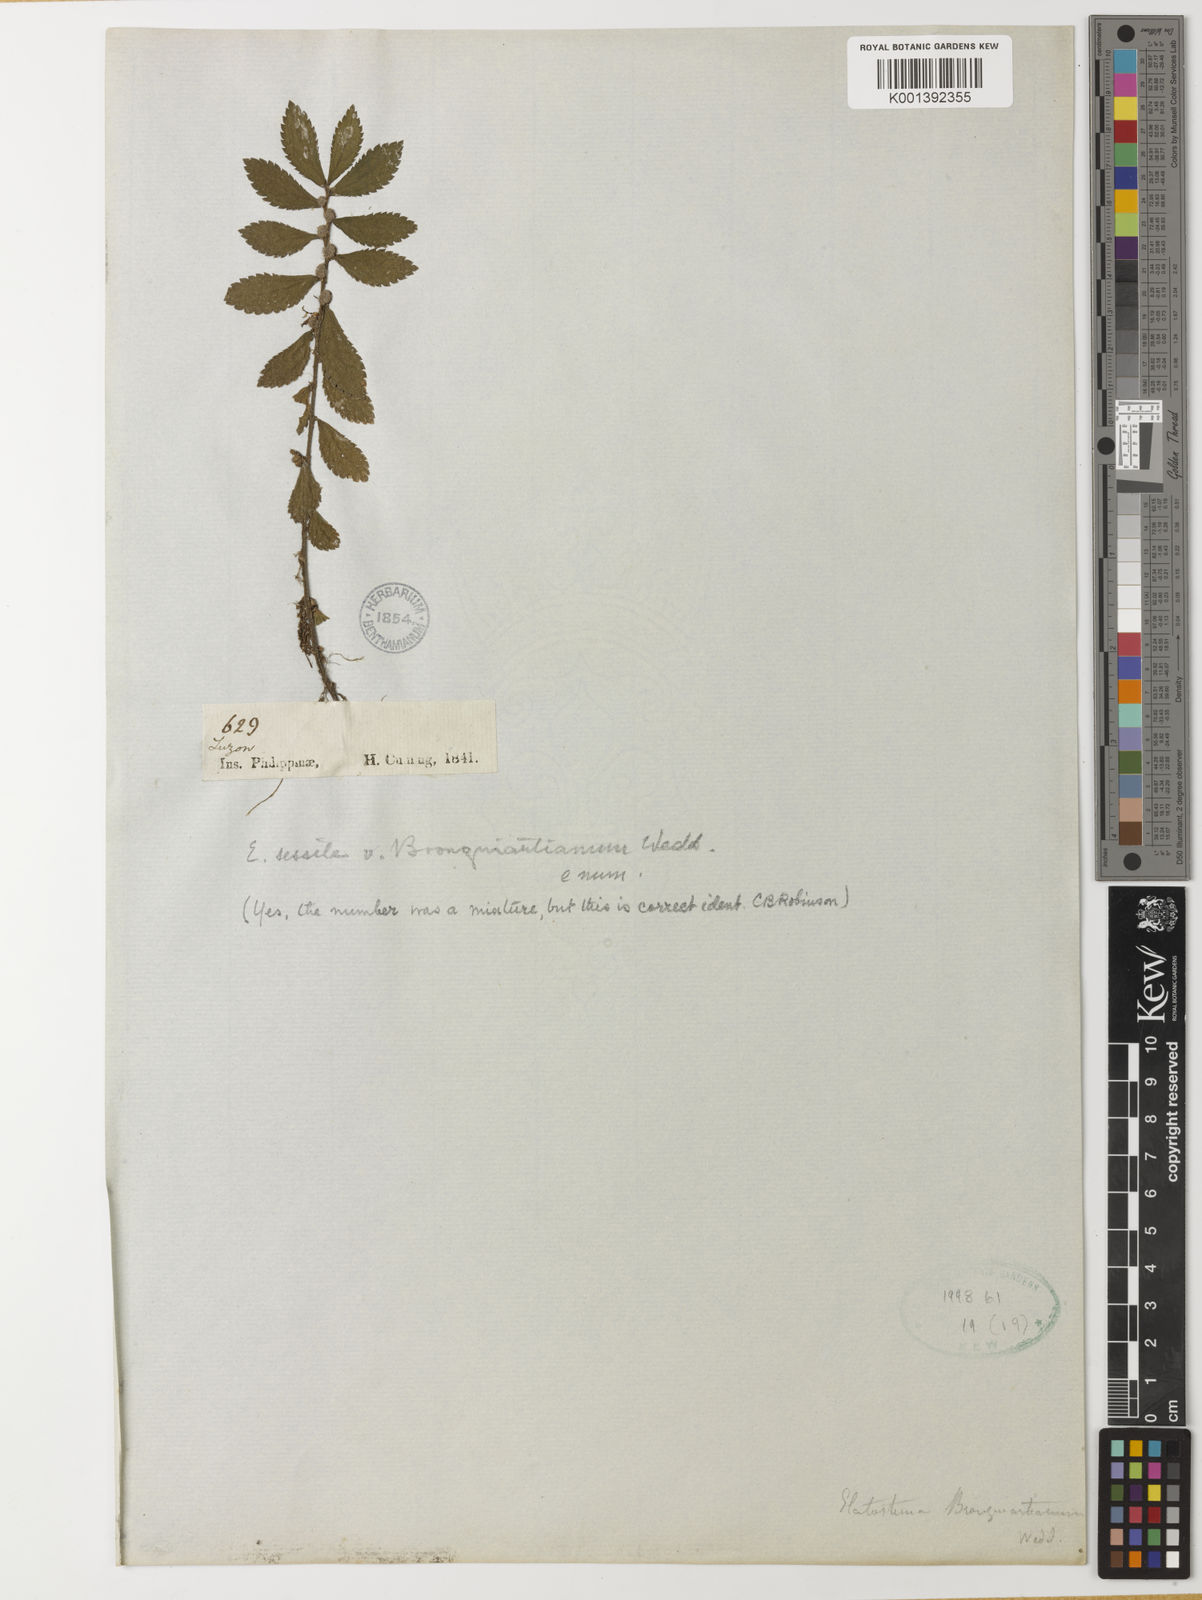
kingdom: Plantae
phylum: Tracheophyta
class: Magnoliopsida
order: Rosales
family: Urticaceae
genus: Elatostema
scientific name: Elatostema brongniartianum
